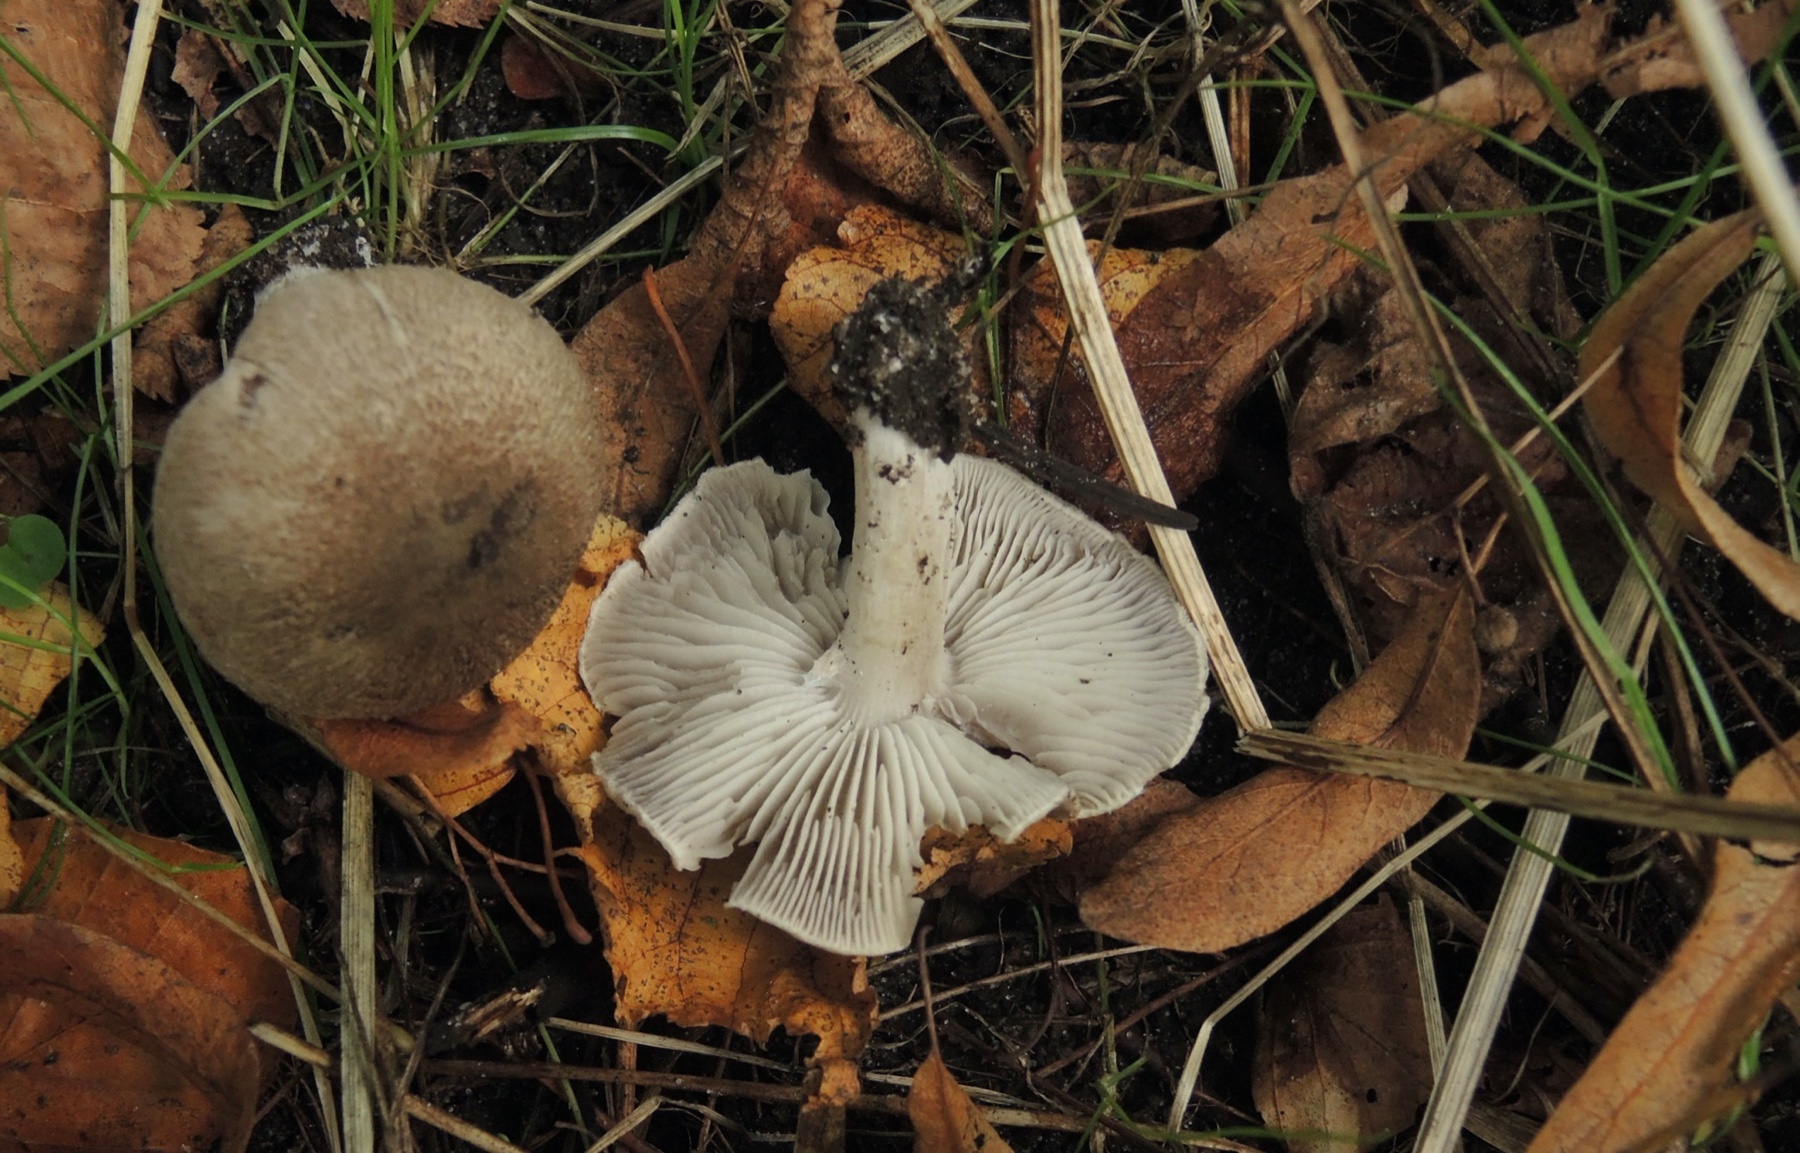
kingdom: Fungi
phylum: Basidiomycota
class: Agaricomycetes
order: Agaricales
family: Tricholomataceae
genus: Tricholoma
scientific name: Tricholoma scalpturatum
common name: gulplettet ridderhat
